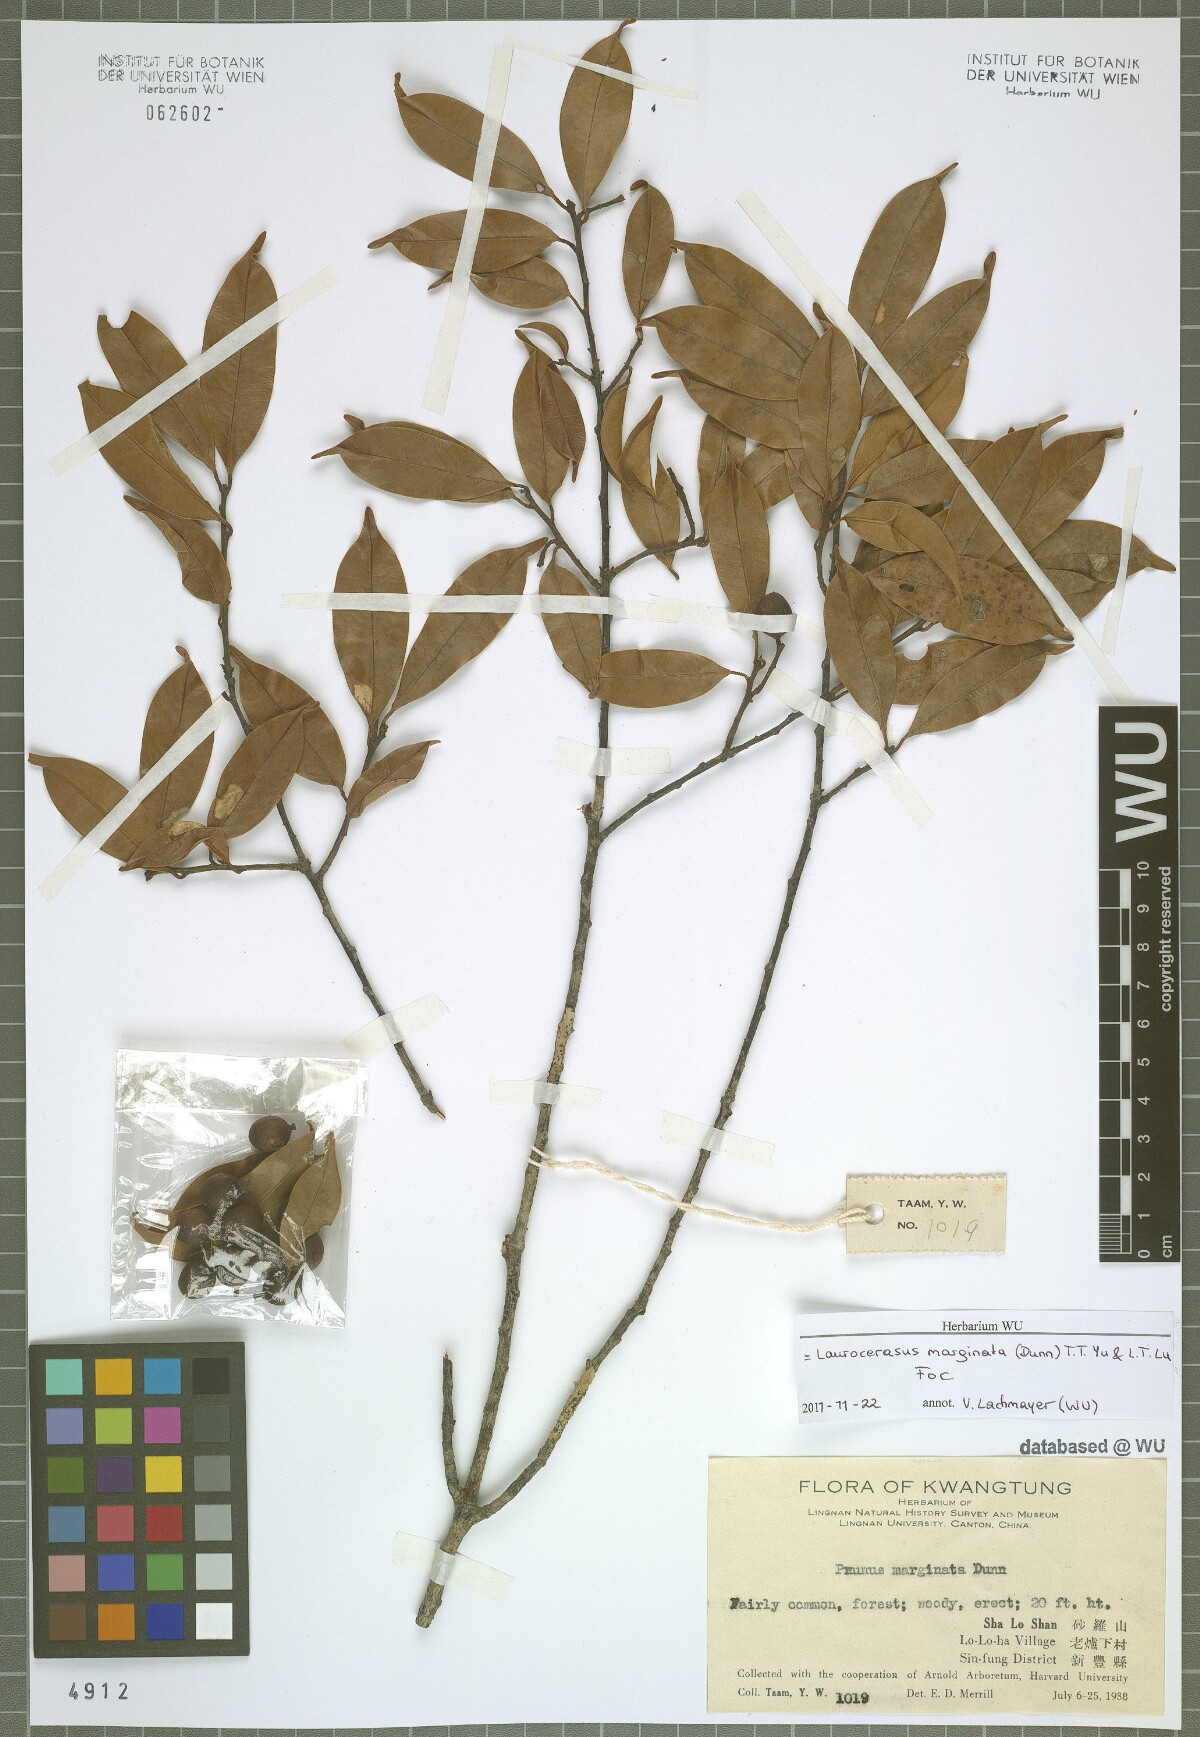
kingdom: Plantae
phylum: Tracheophyta
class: Magnoliopsida
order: Rosales
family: Rosaceae
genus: Prunus
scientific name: Prunus spinulosa
